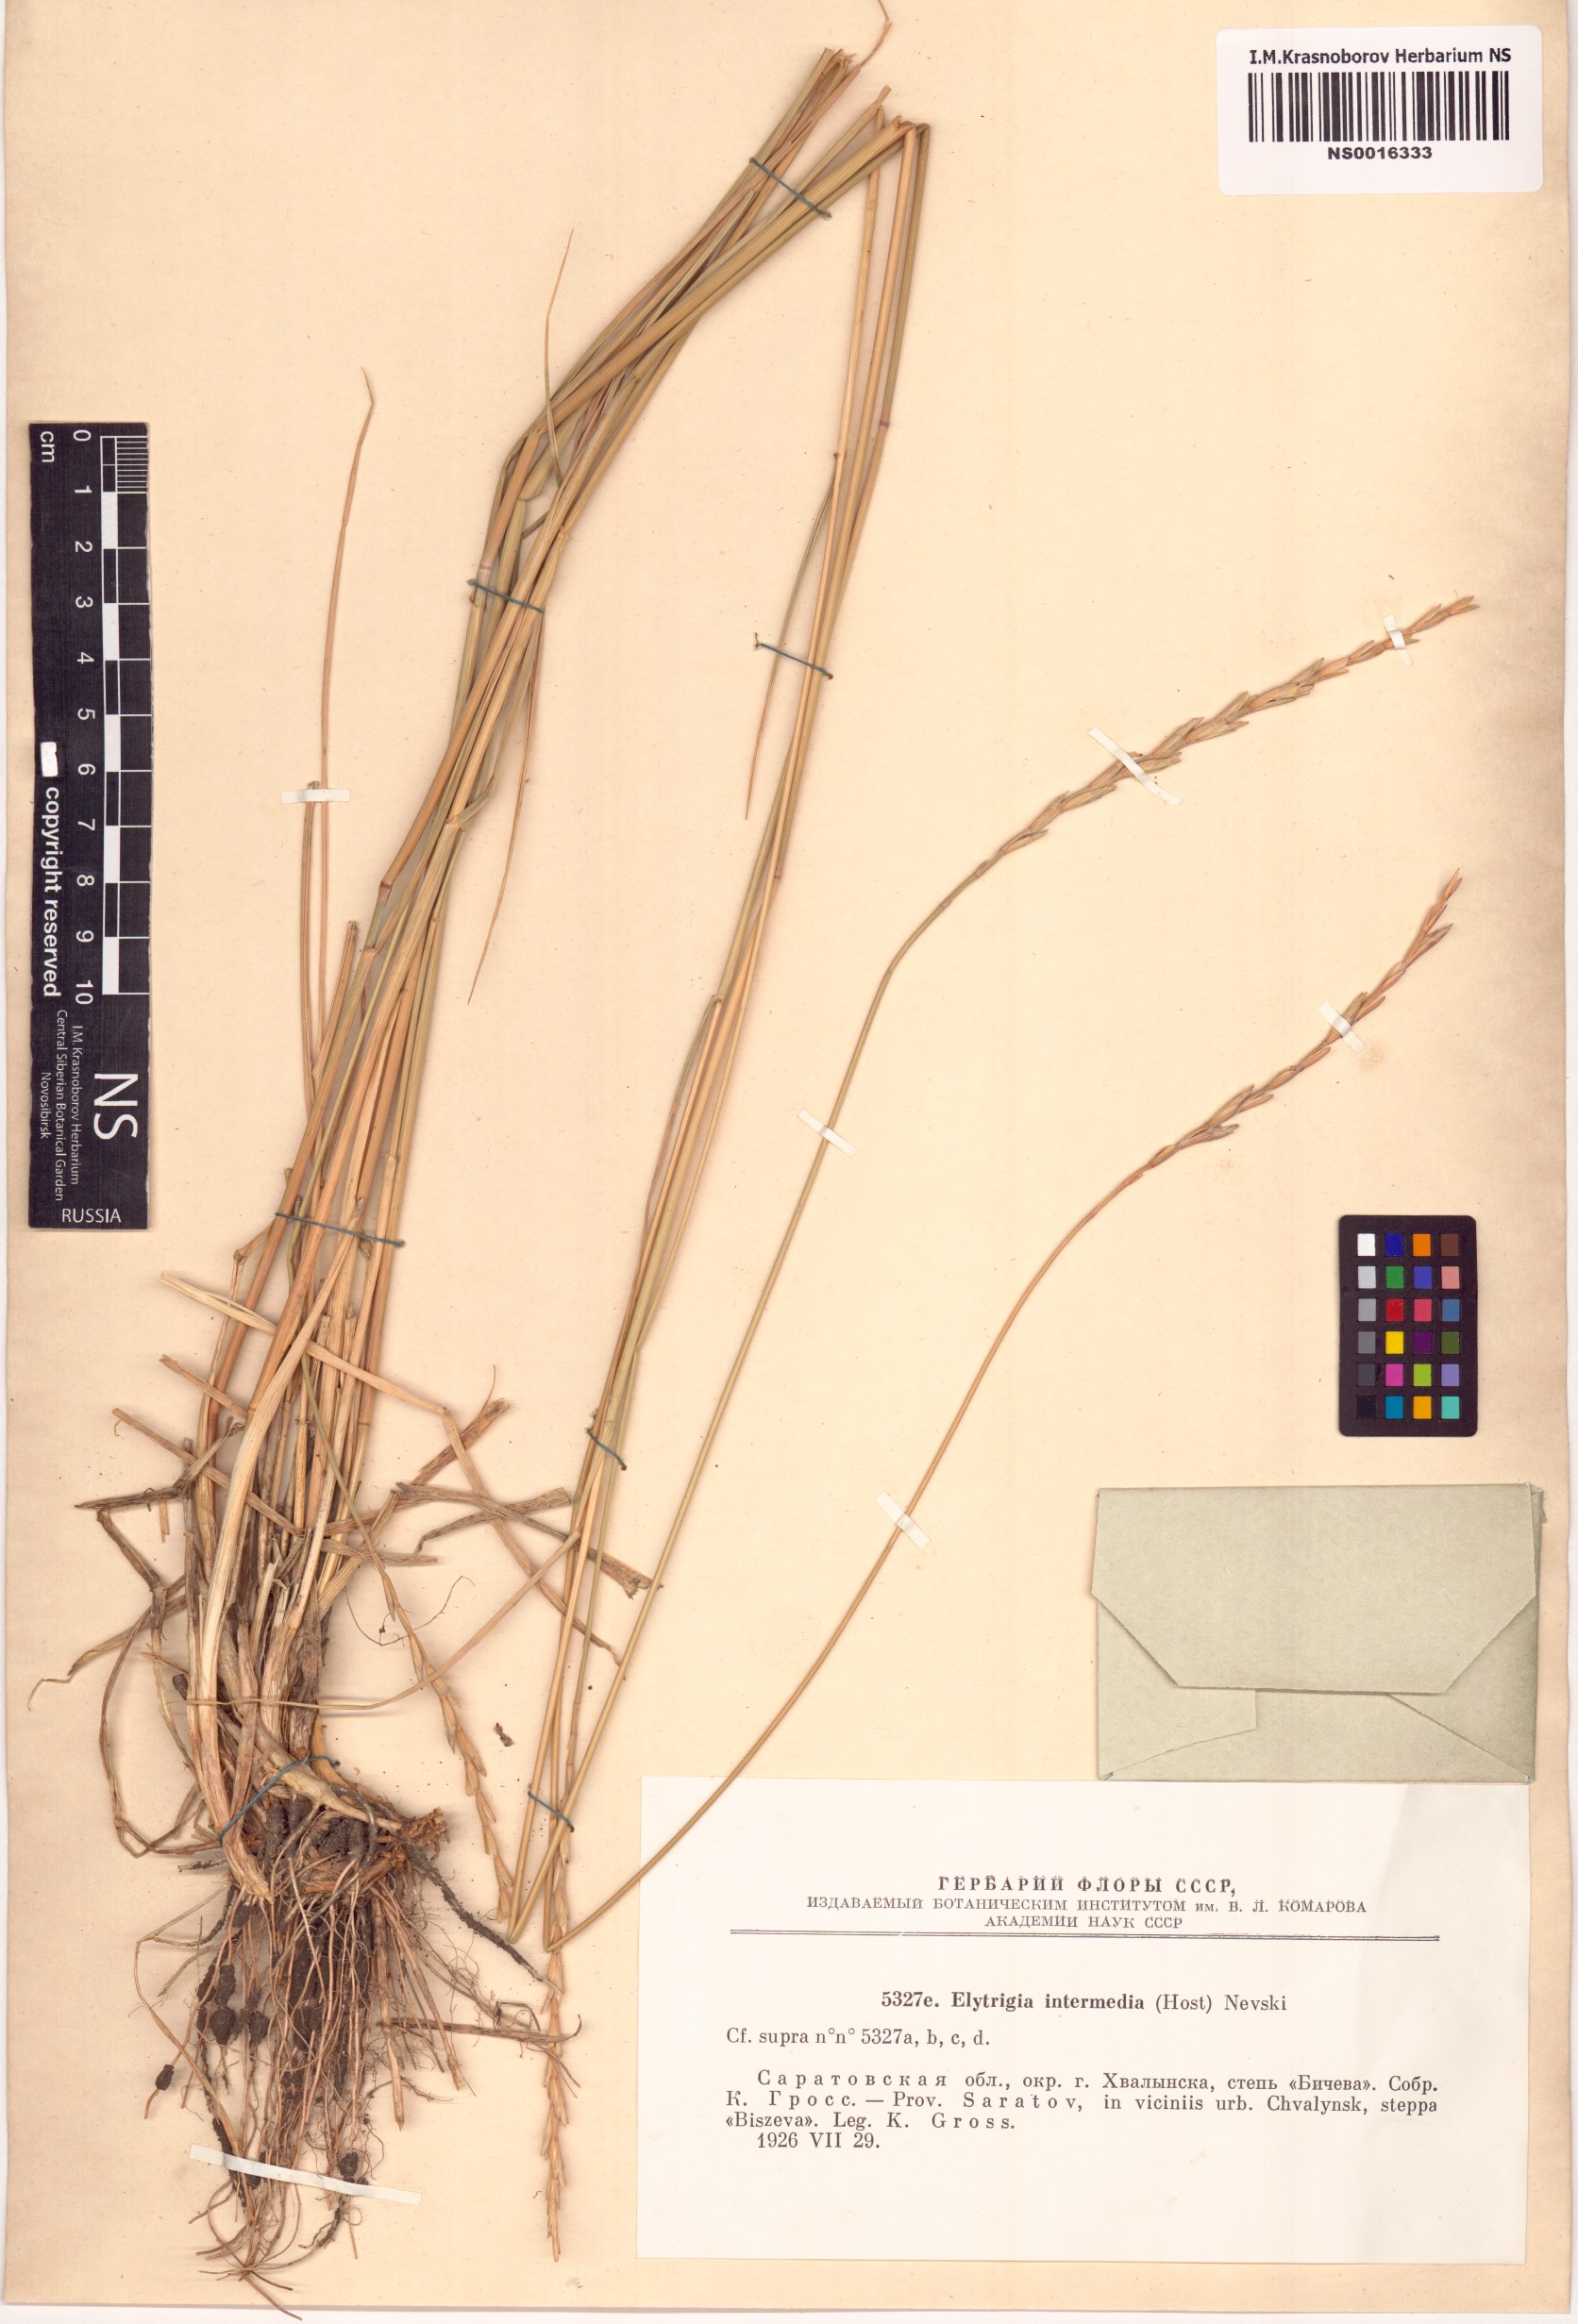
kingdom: Plantae
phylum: Tracheophyta
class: Liliopsida
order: Poales
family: Poaceae
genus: Thinopyrum
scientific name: Thinopyrum intermedium
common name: Intermediate wheatgrass
